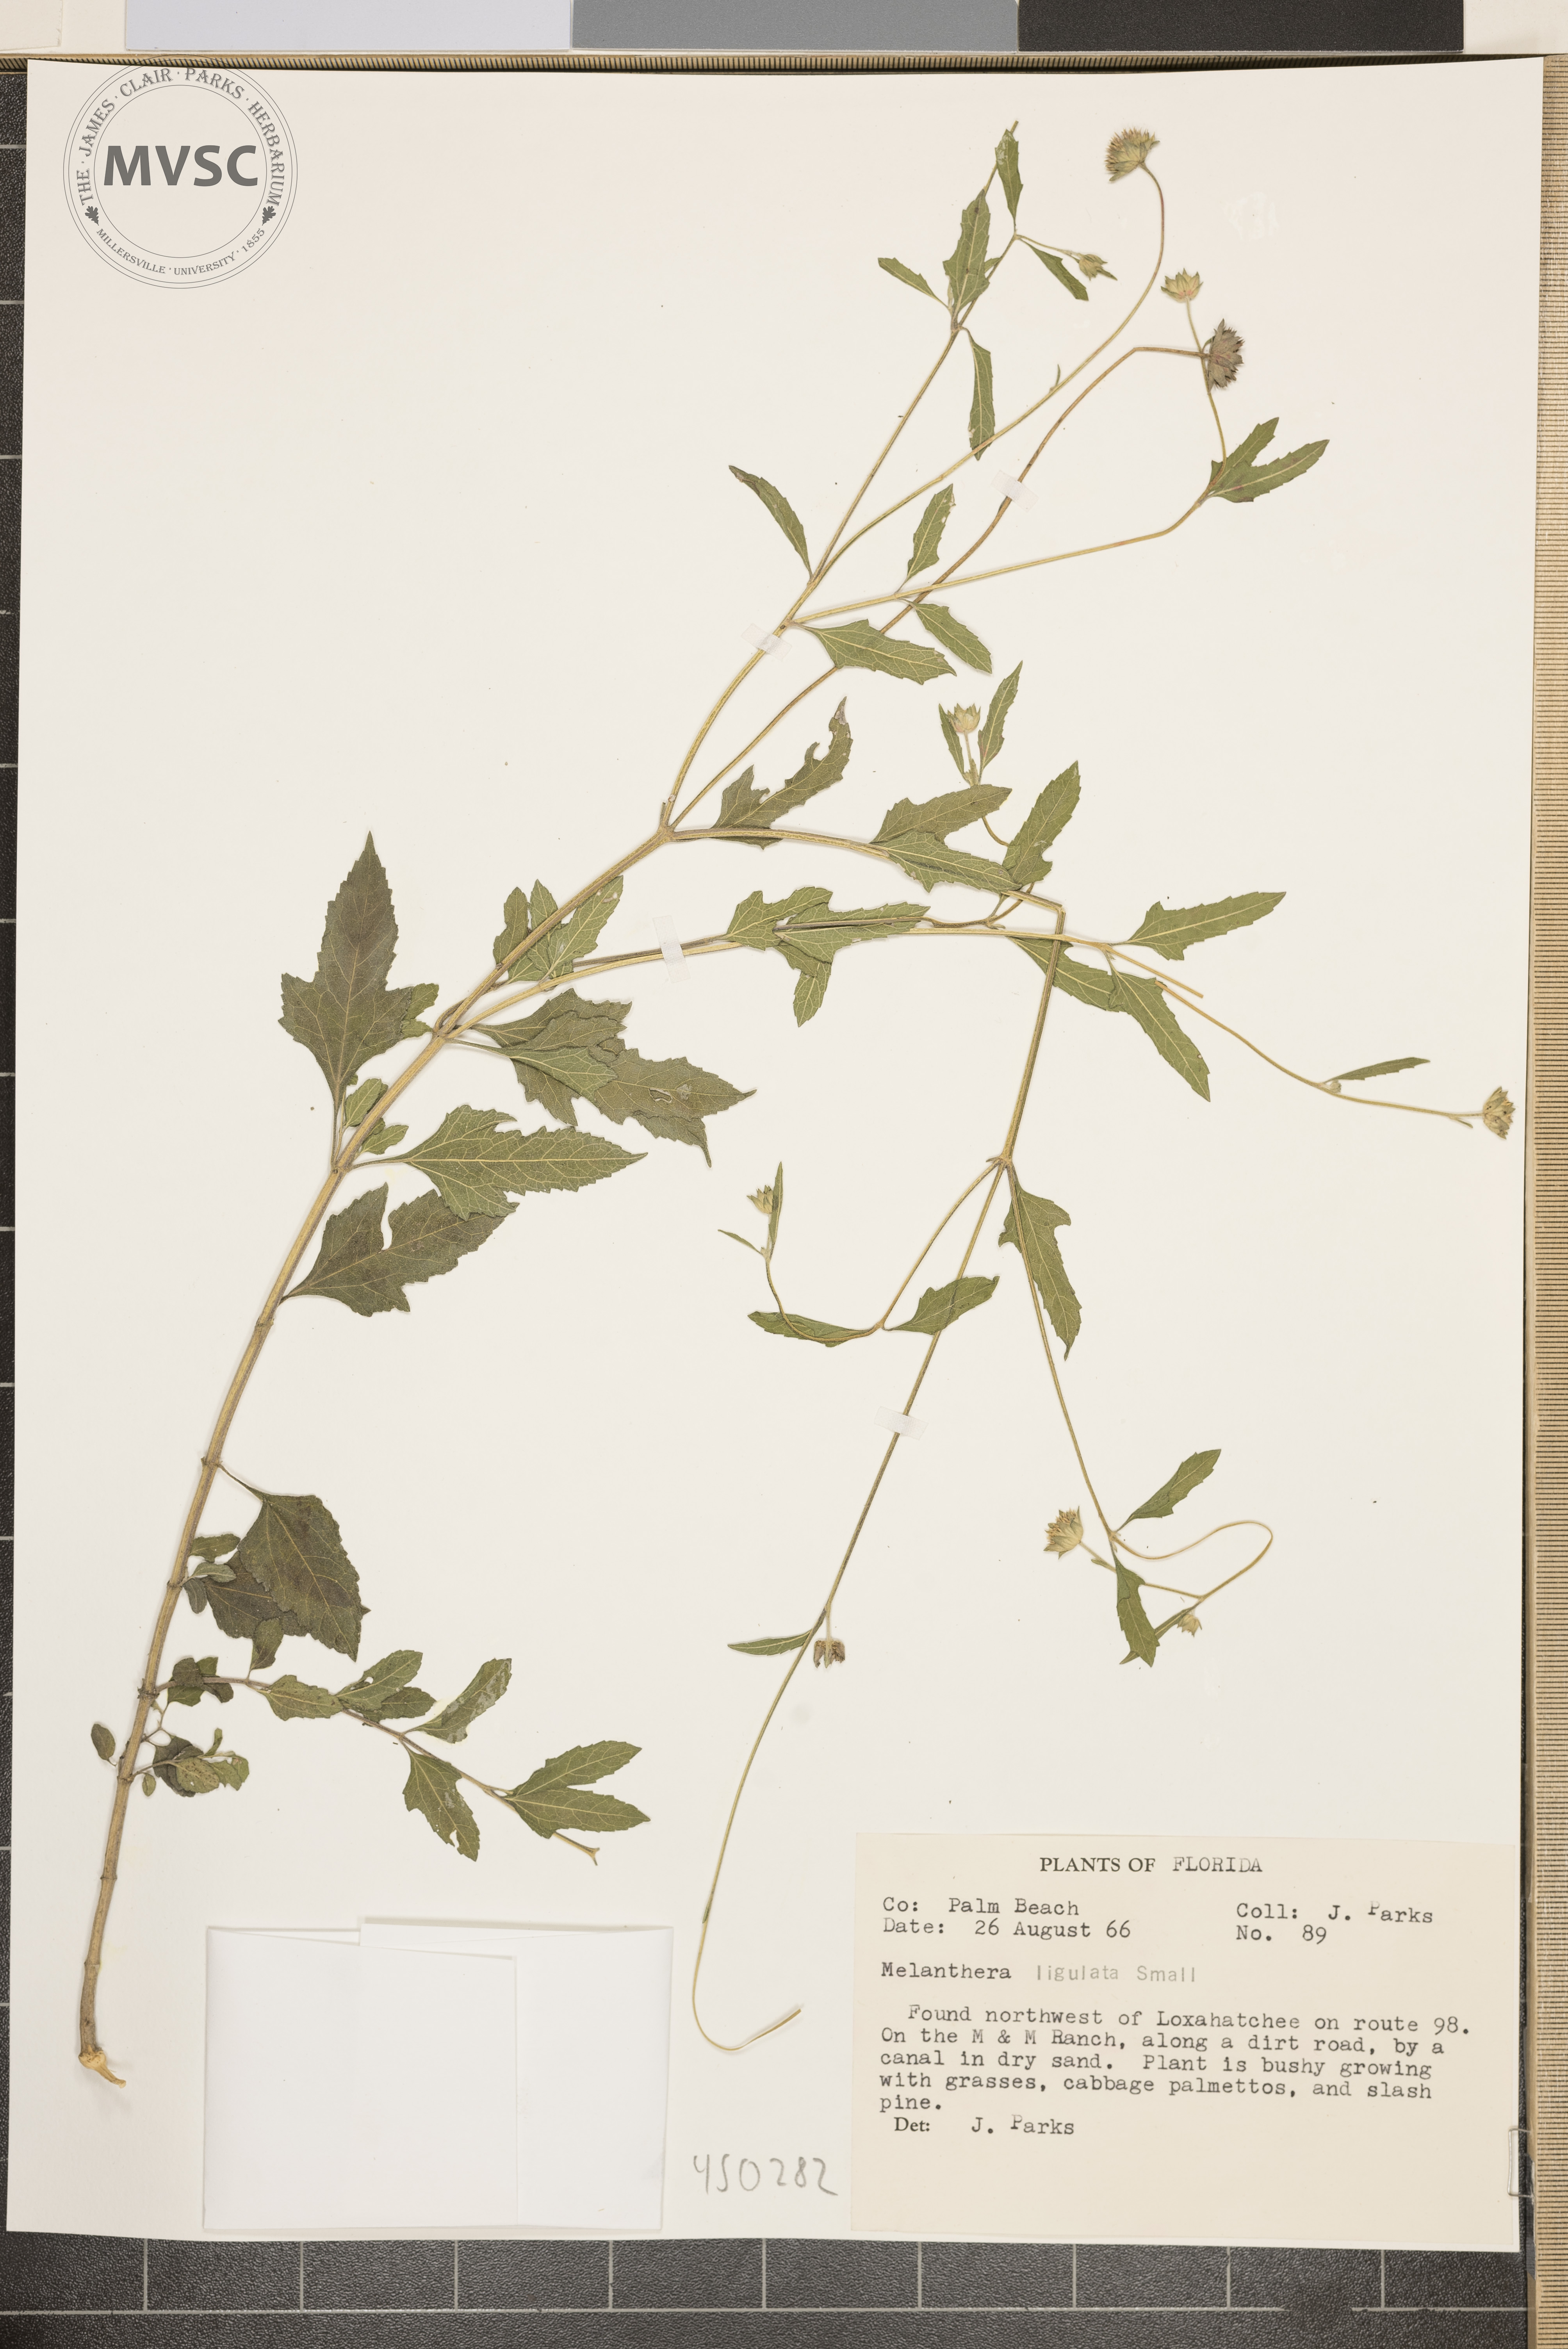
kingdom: Plantae
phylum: Tracheophyta
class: Magnoliopsida
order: Asterales
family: Asteraceae
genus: Melanthera
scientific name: Melanthera nivea
